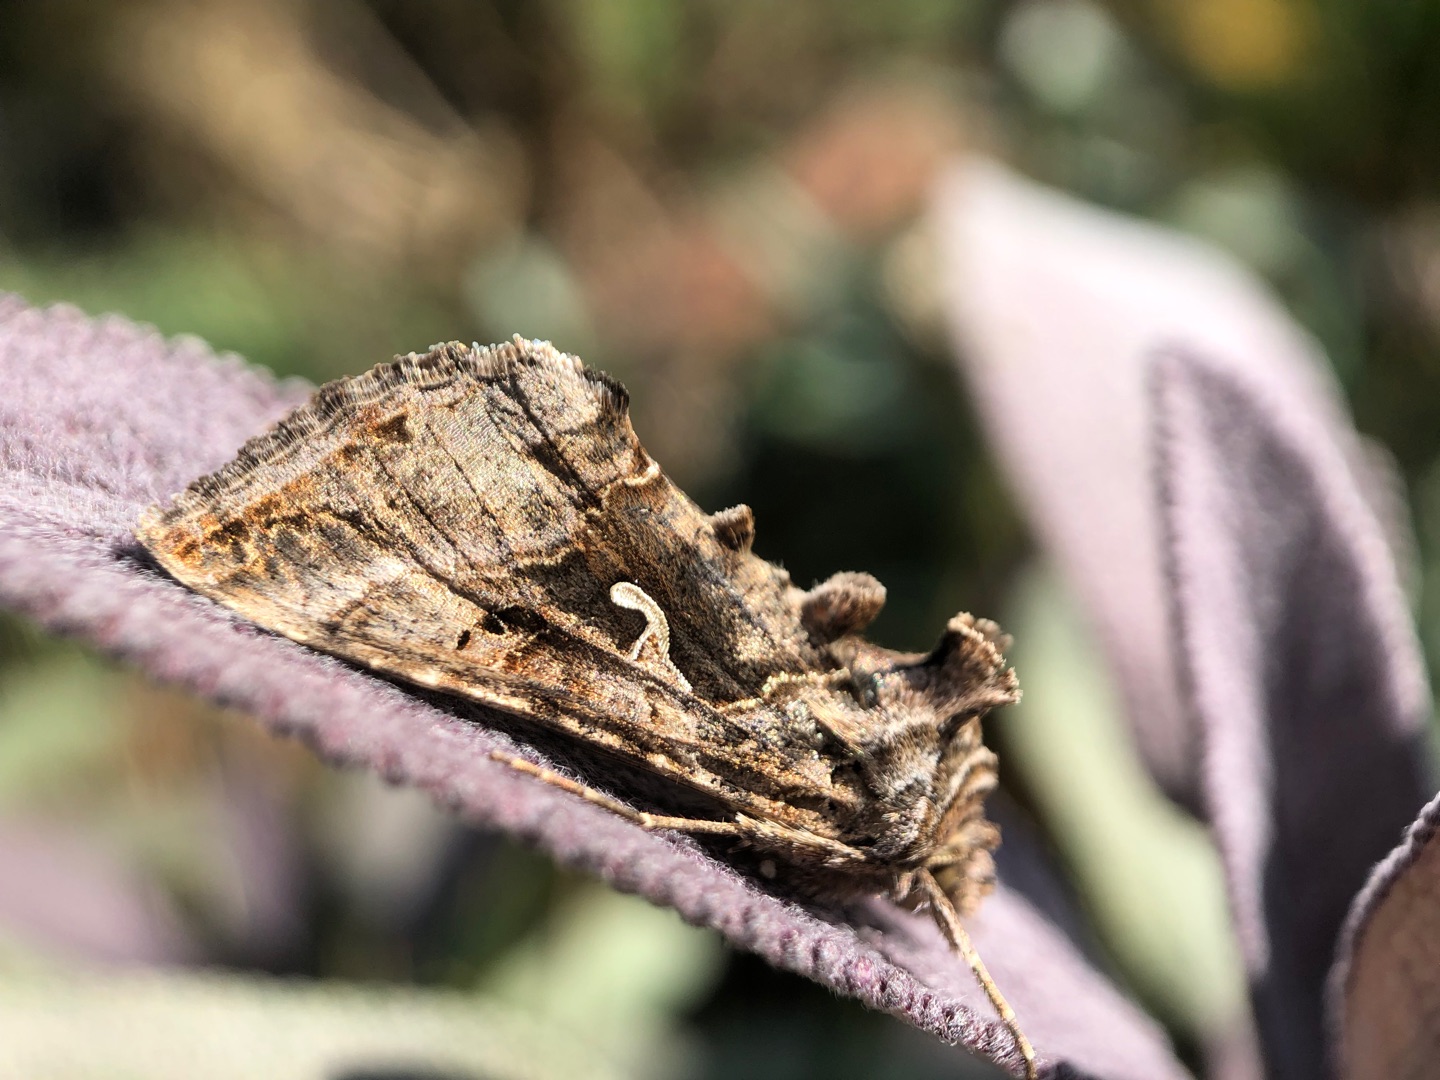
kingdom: Animalia
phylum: Arthropoda
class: Insecta
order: Lepidoptera
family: Noctuidae
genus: Autographa
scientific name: Autographa gamma
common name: Gammaugle
